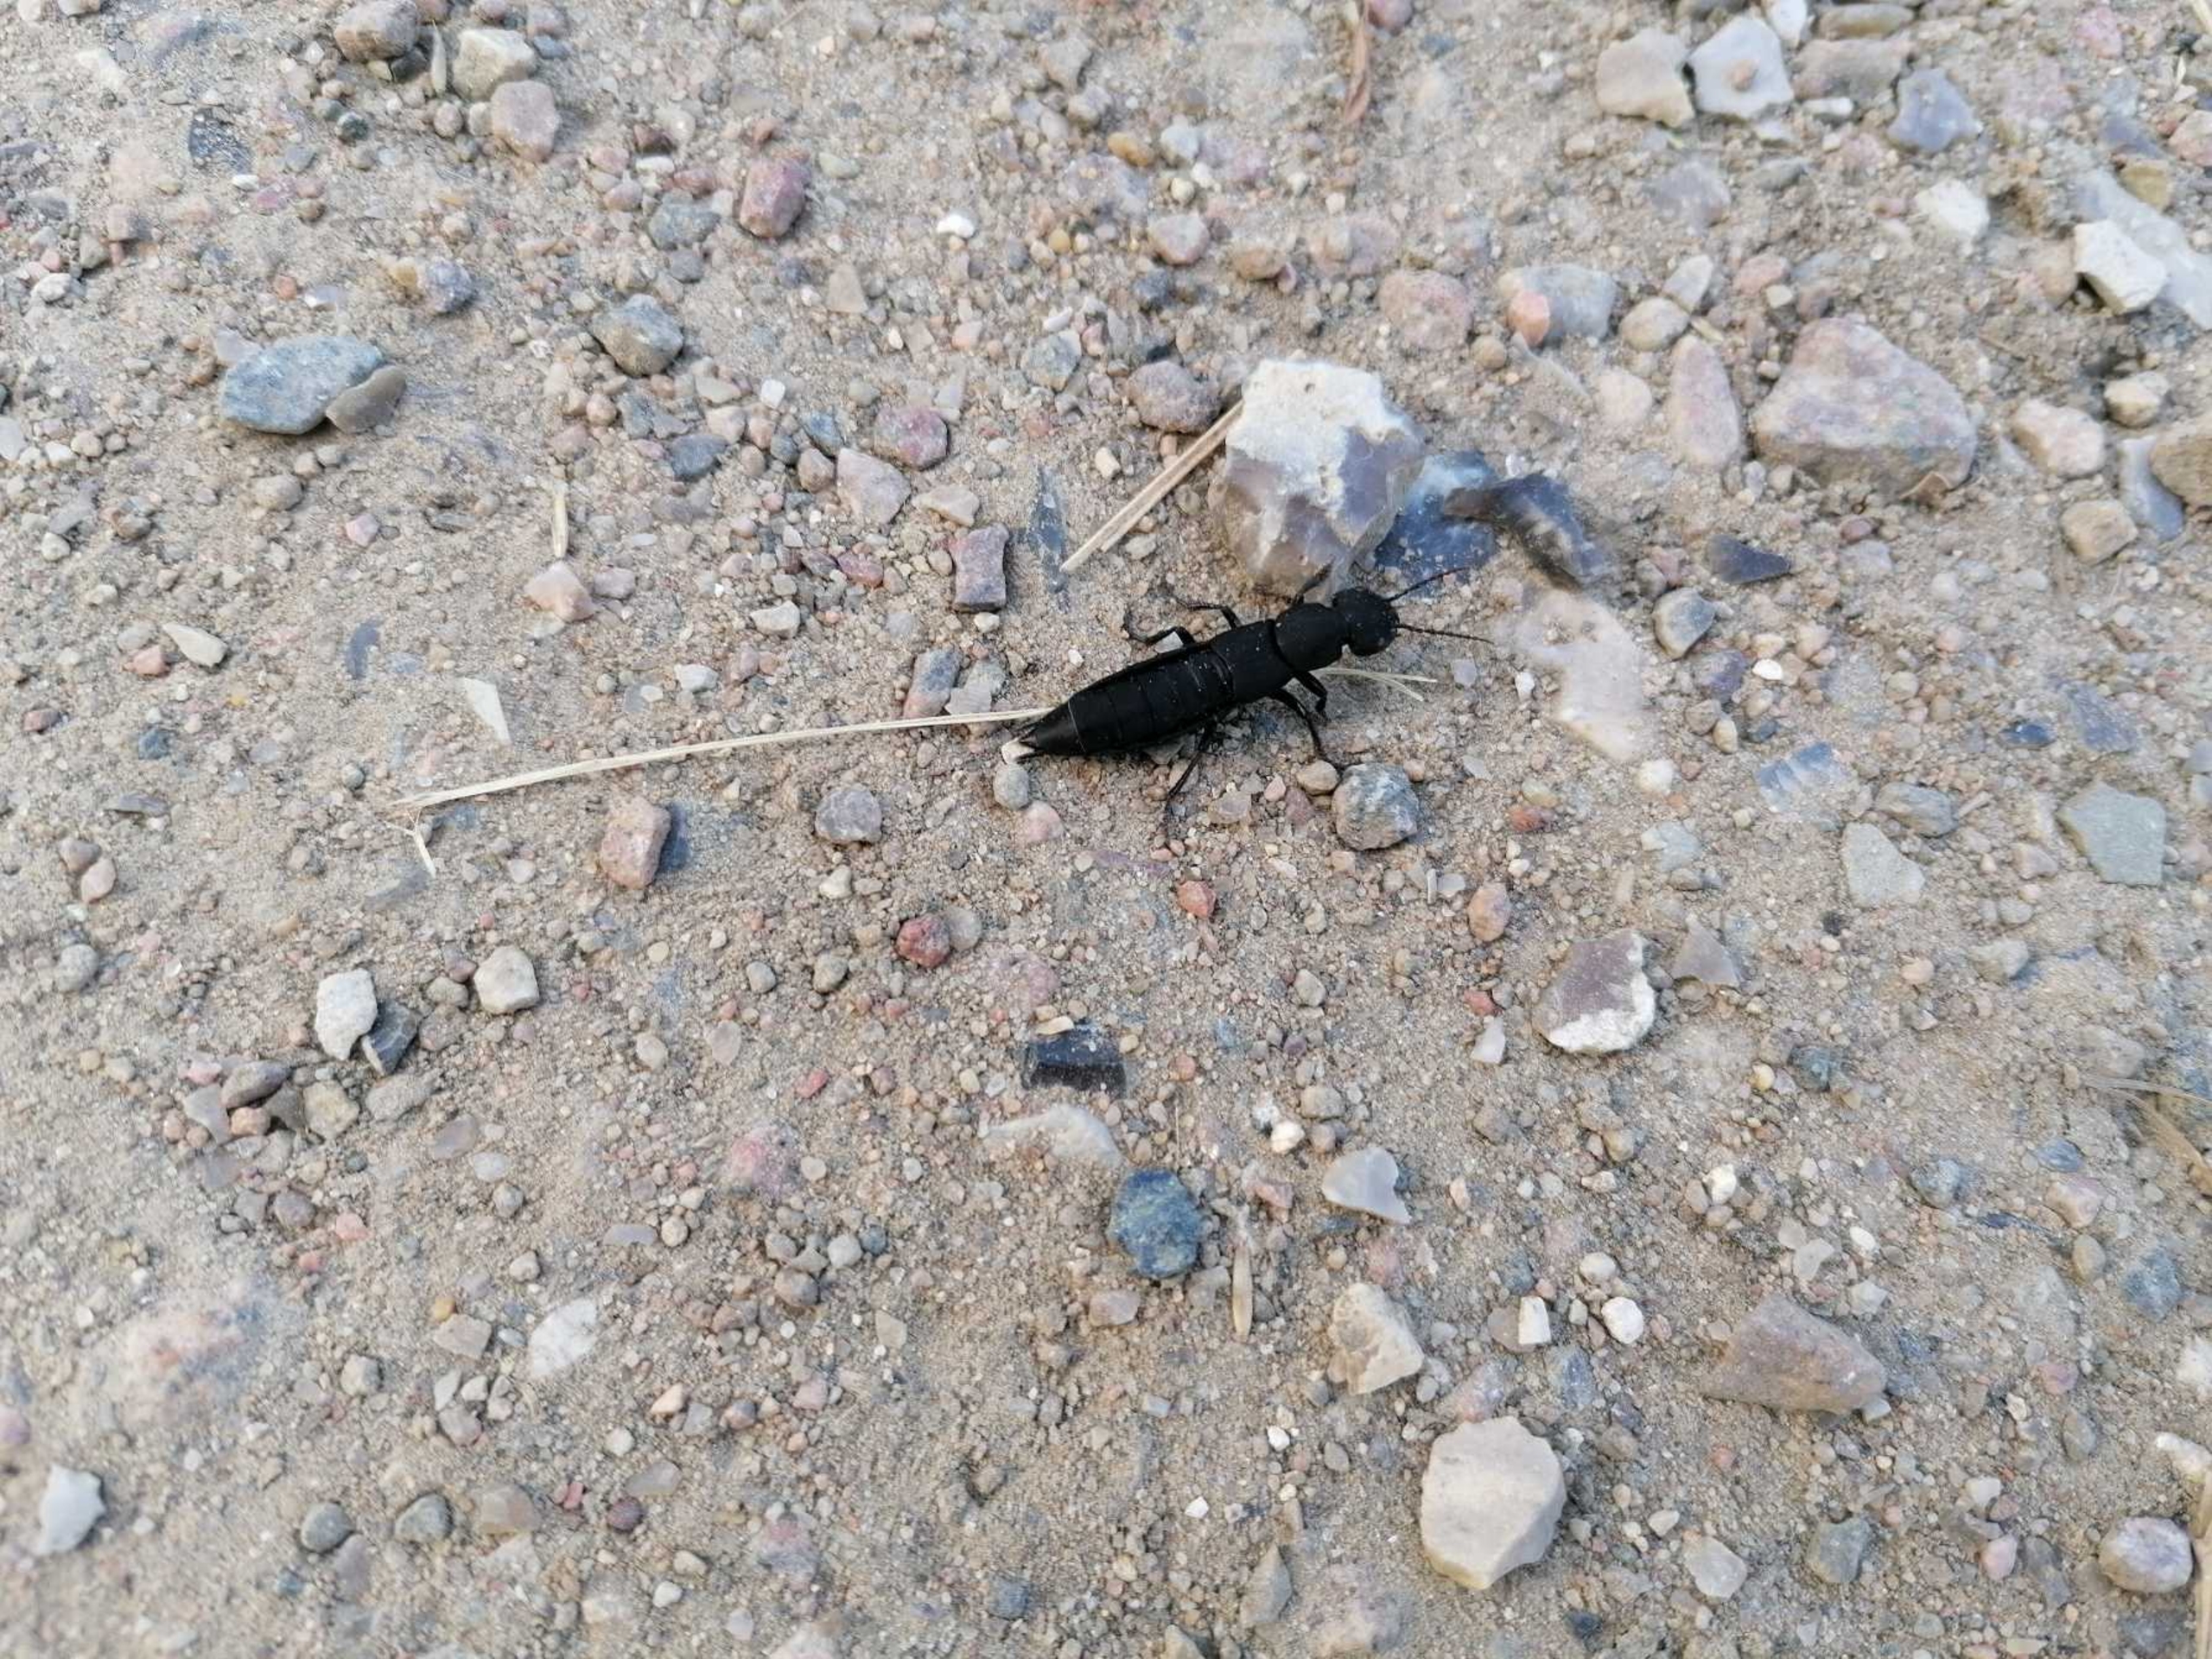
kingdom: Animalia
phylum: Arthropoda
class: Insecta
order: Coleoptera
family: Staphylinidae
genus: Ocypus
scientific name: Ocypus olens
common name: Stor rovbille
